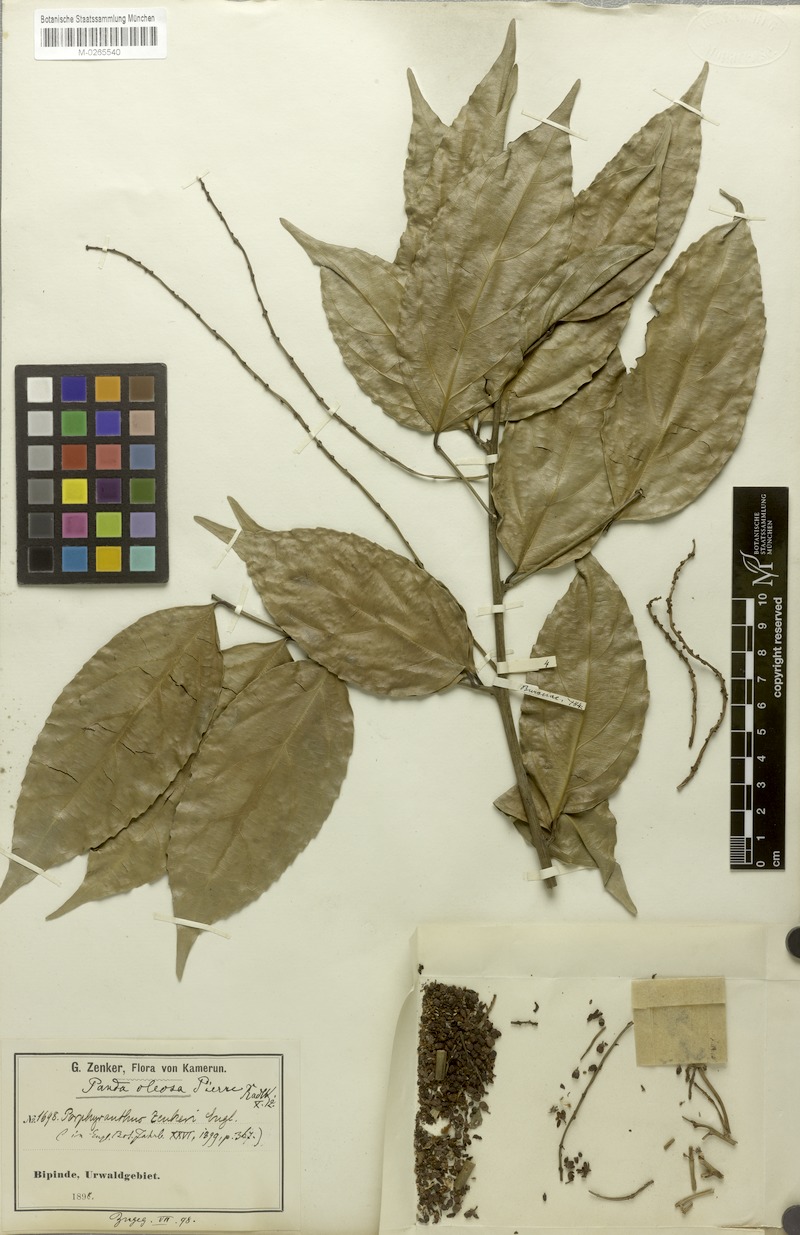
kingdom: Plantae
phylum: Tracheophyta
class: Magnoliopsida
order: Malpighiales
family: Pandaceae
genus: Panda
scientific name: Panda oleosa
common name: Panda
